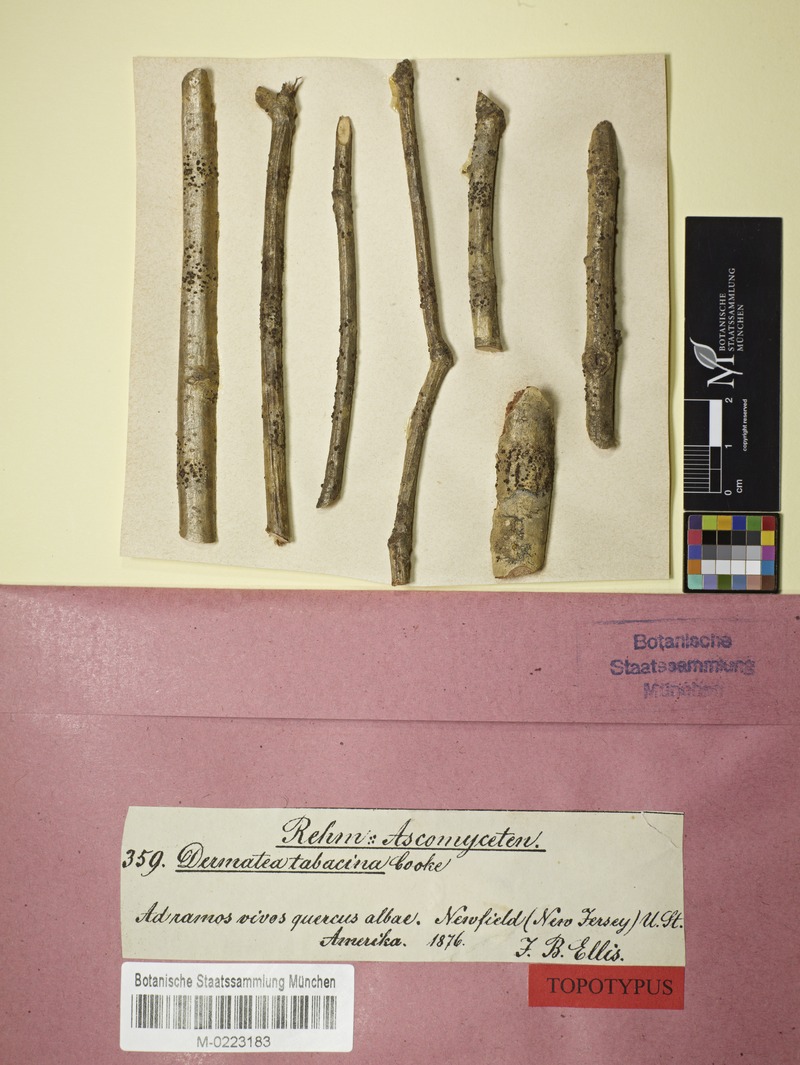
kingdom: Fungi
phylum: Ascomycota
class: Leotiomycetes
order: Helotiales
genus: Dermateopsis
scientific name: Dermateopsis tabacina
